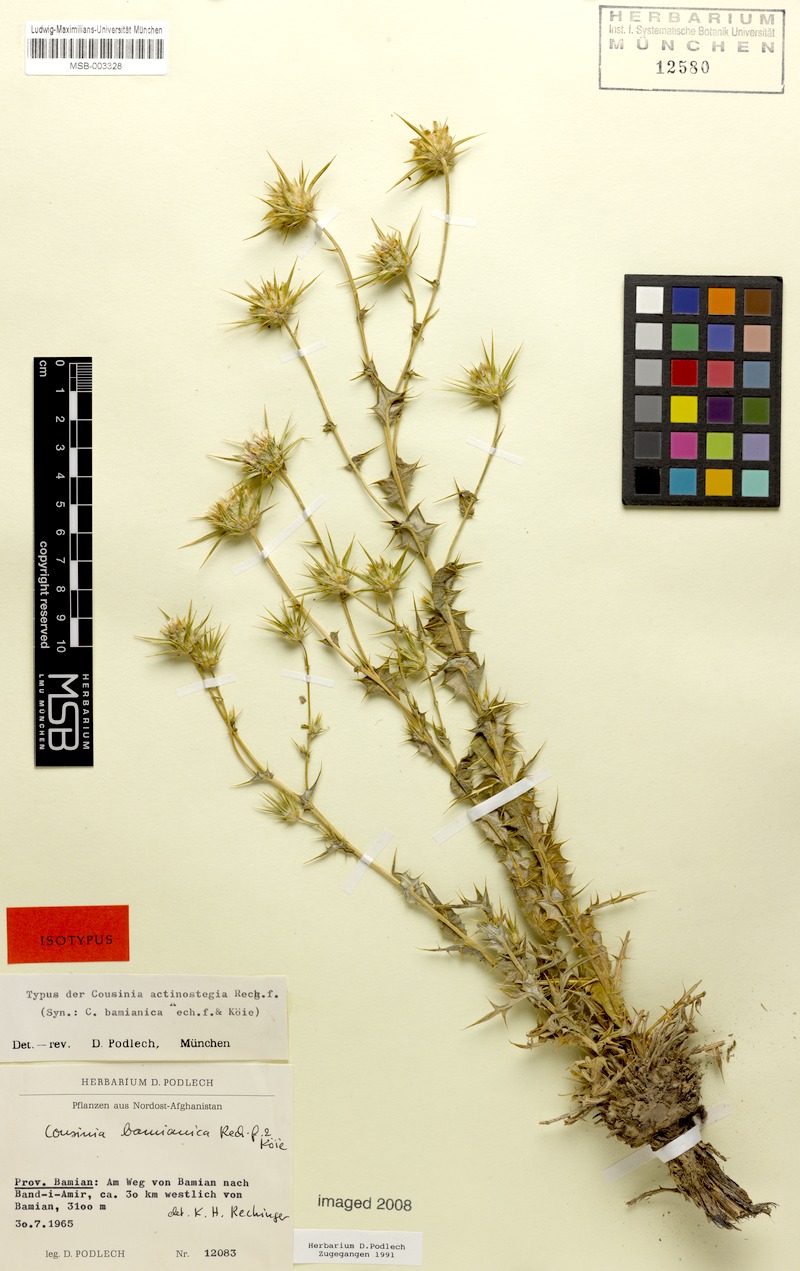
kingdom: Plantae
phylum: Tracheophyta
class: Magnoliopsida
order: Asterales
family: Asteraceae
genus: Cousinia
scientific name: Cousinia bamianica
